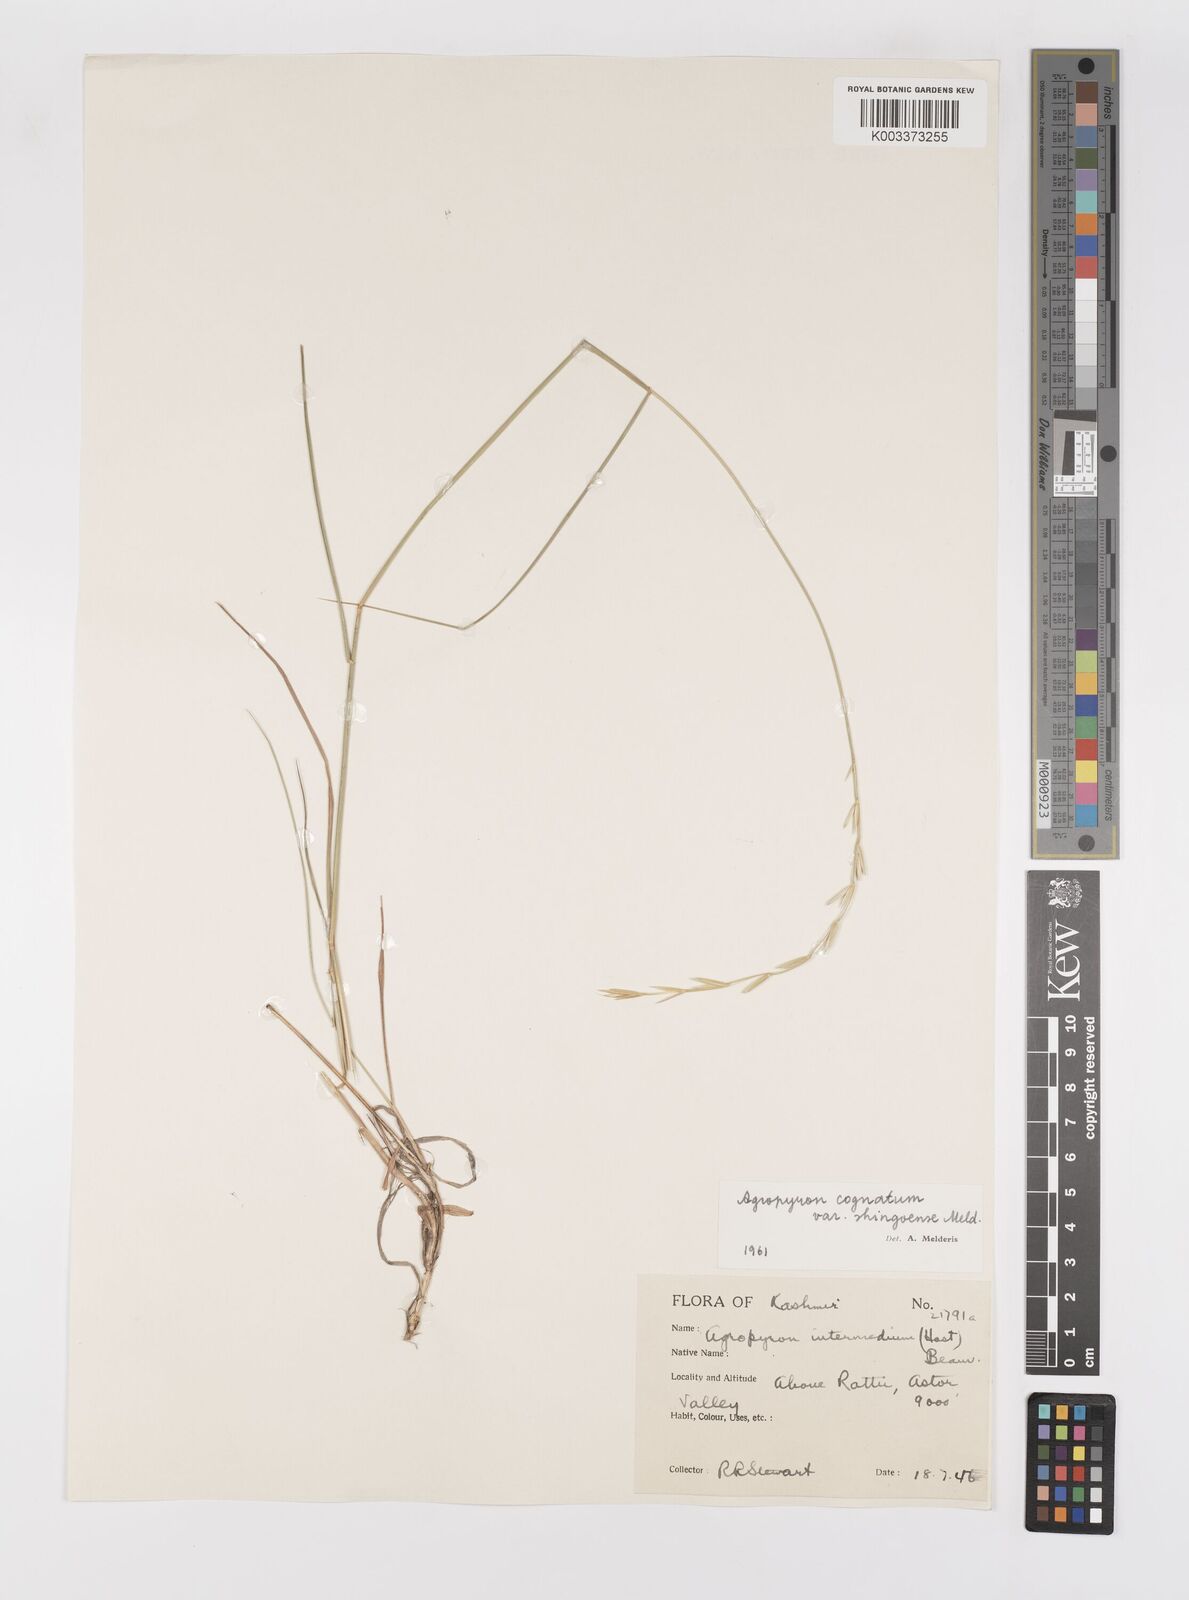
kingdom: Plantae
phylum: Tracheophyta
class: Liliopsida
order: Poales
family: Poaceae
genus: Pseudoroegneria
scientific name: Pseudoroegneria cognata
